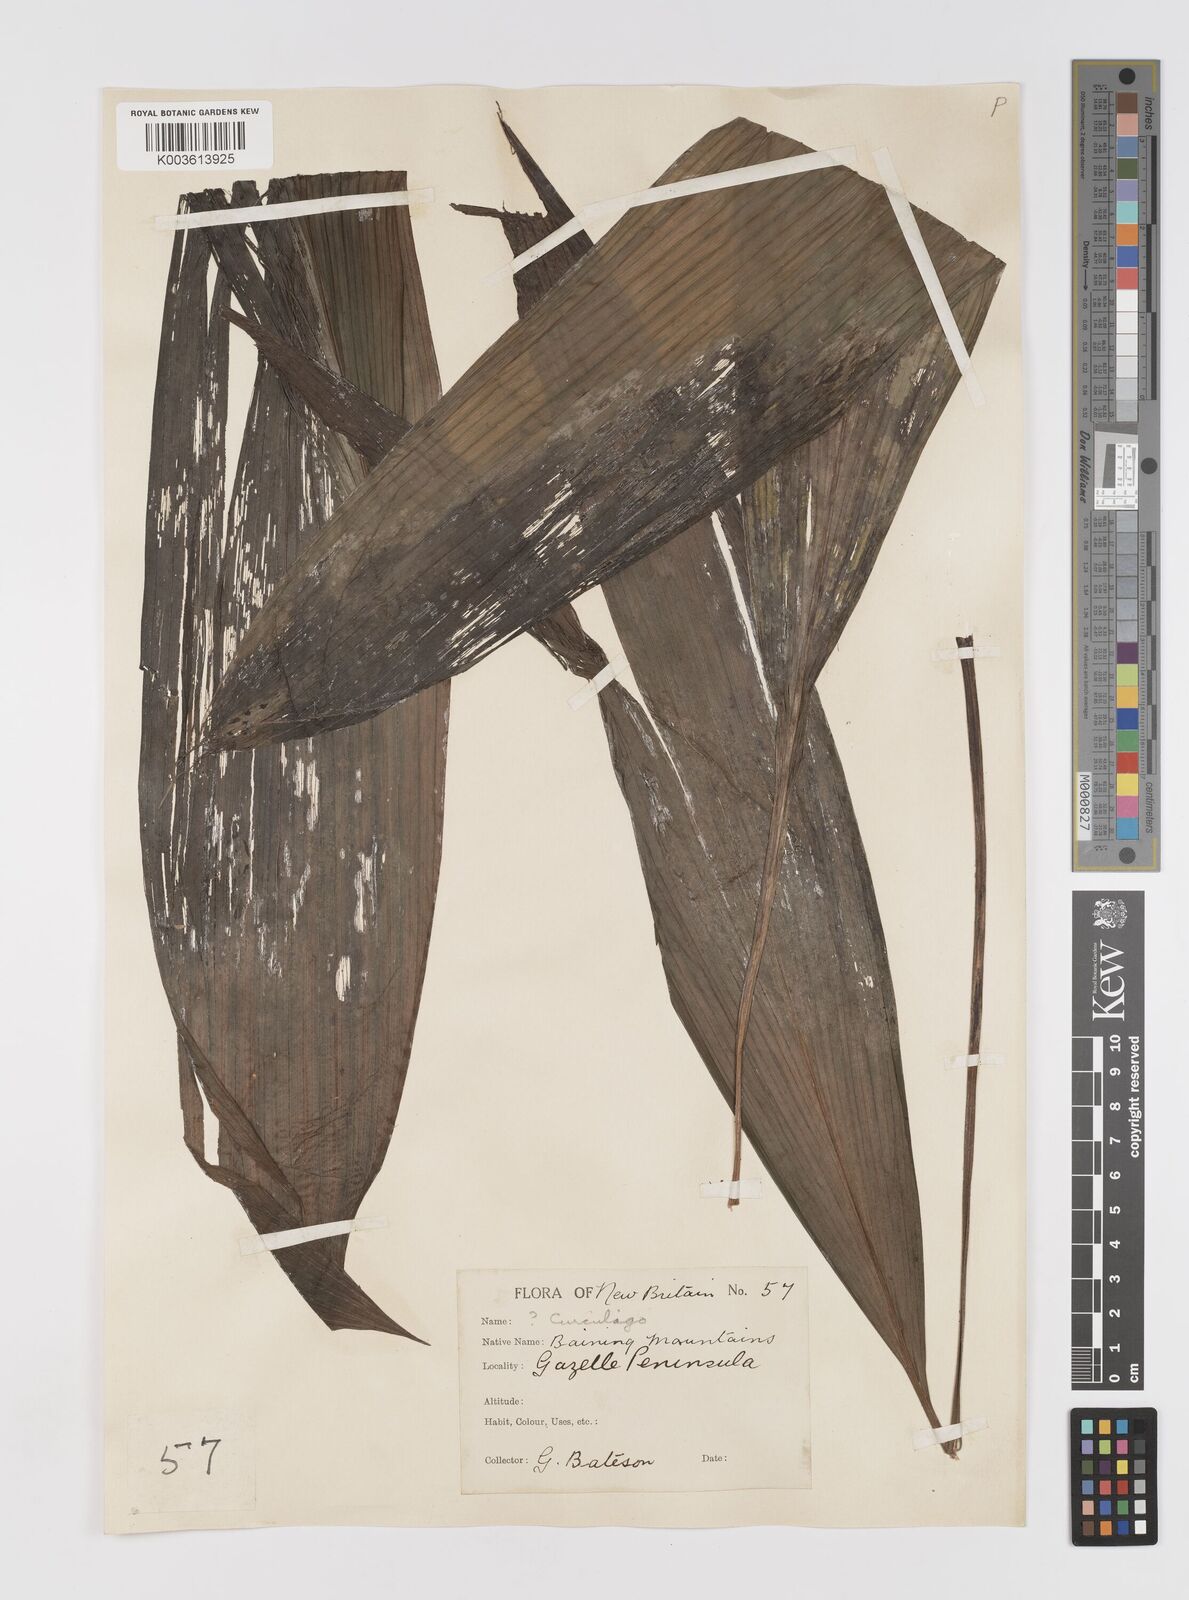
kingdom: Plantae
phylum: Tracheophyta
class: Liliopsida
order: Asparagales
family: Hypoxidaceae
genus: Curculigo
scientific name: Curculigo
